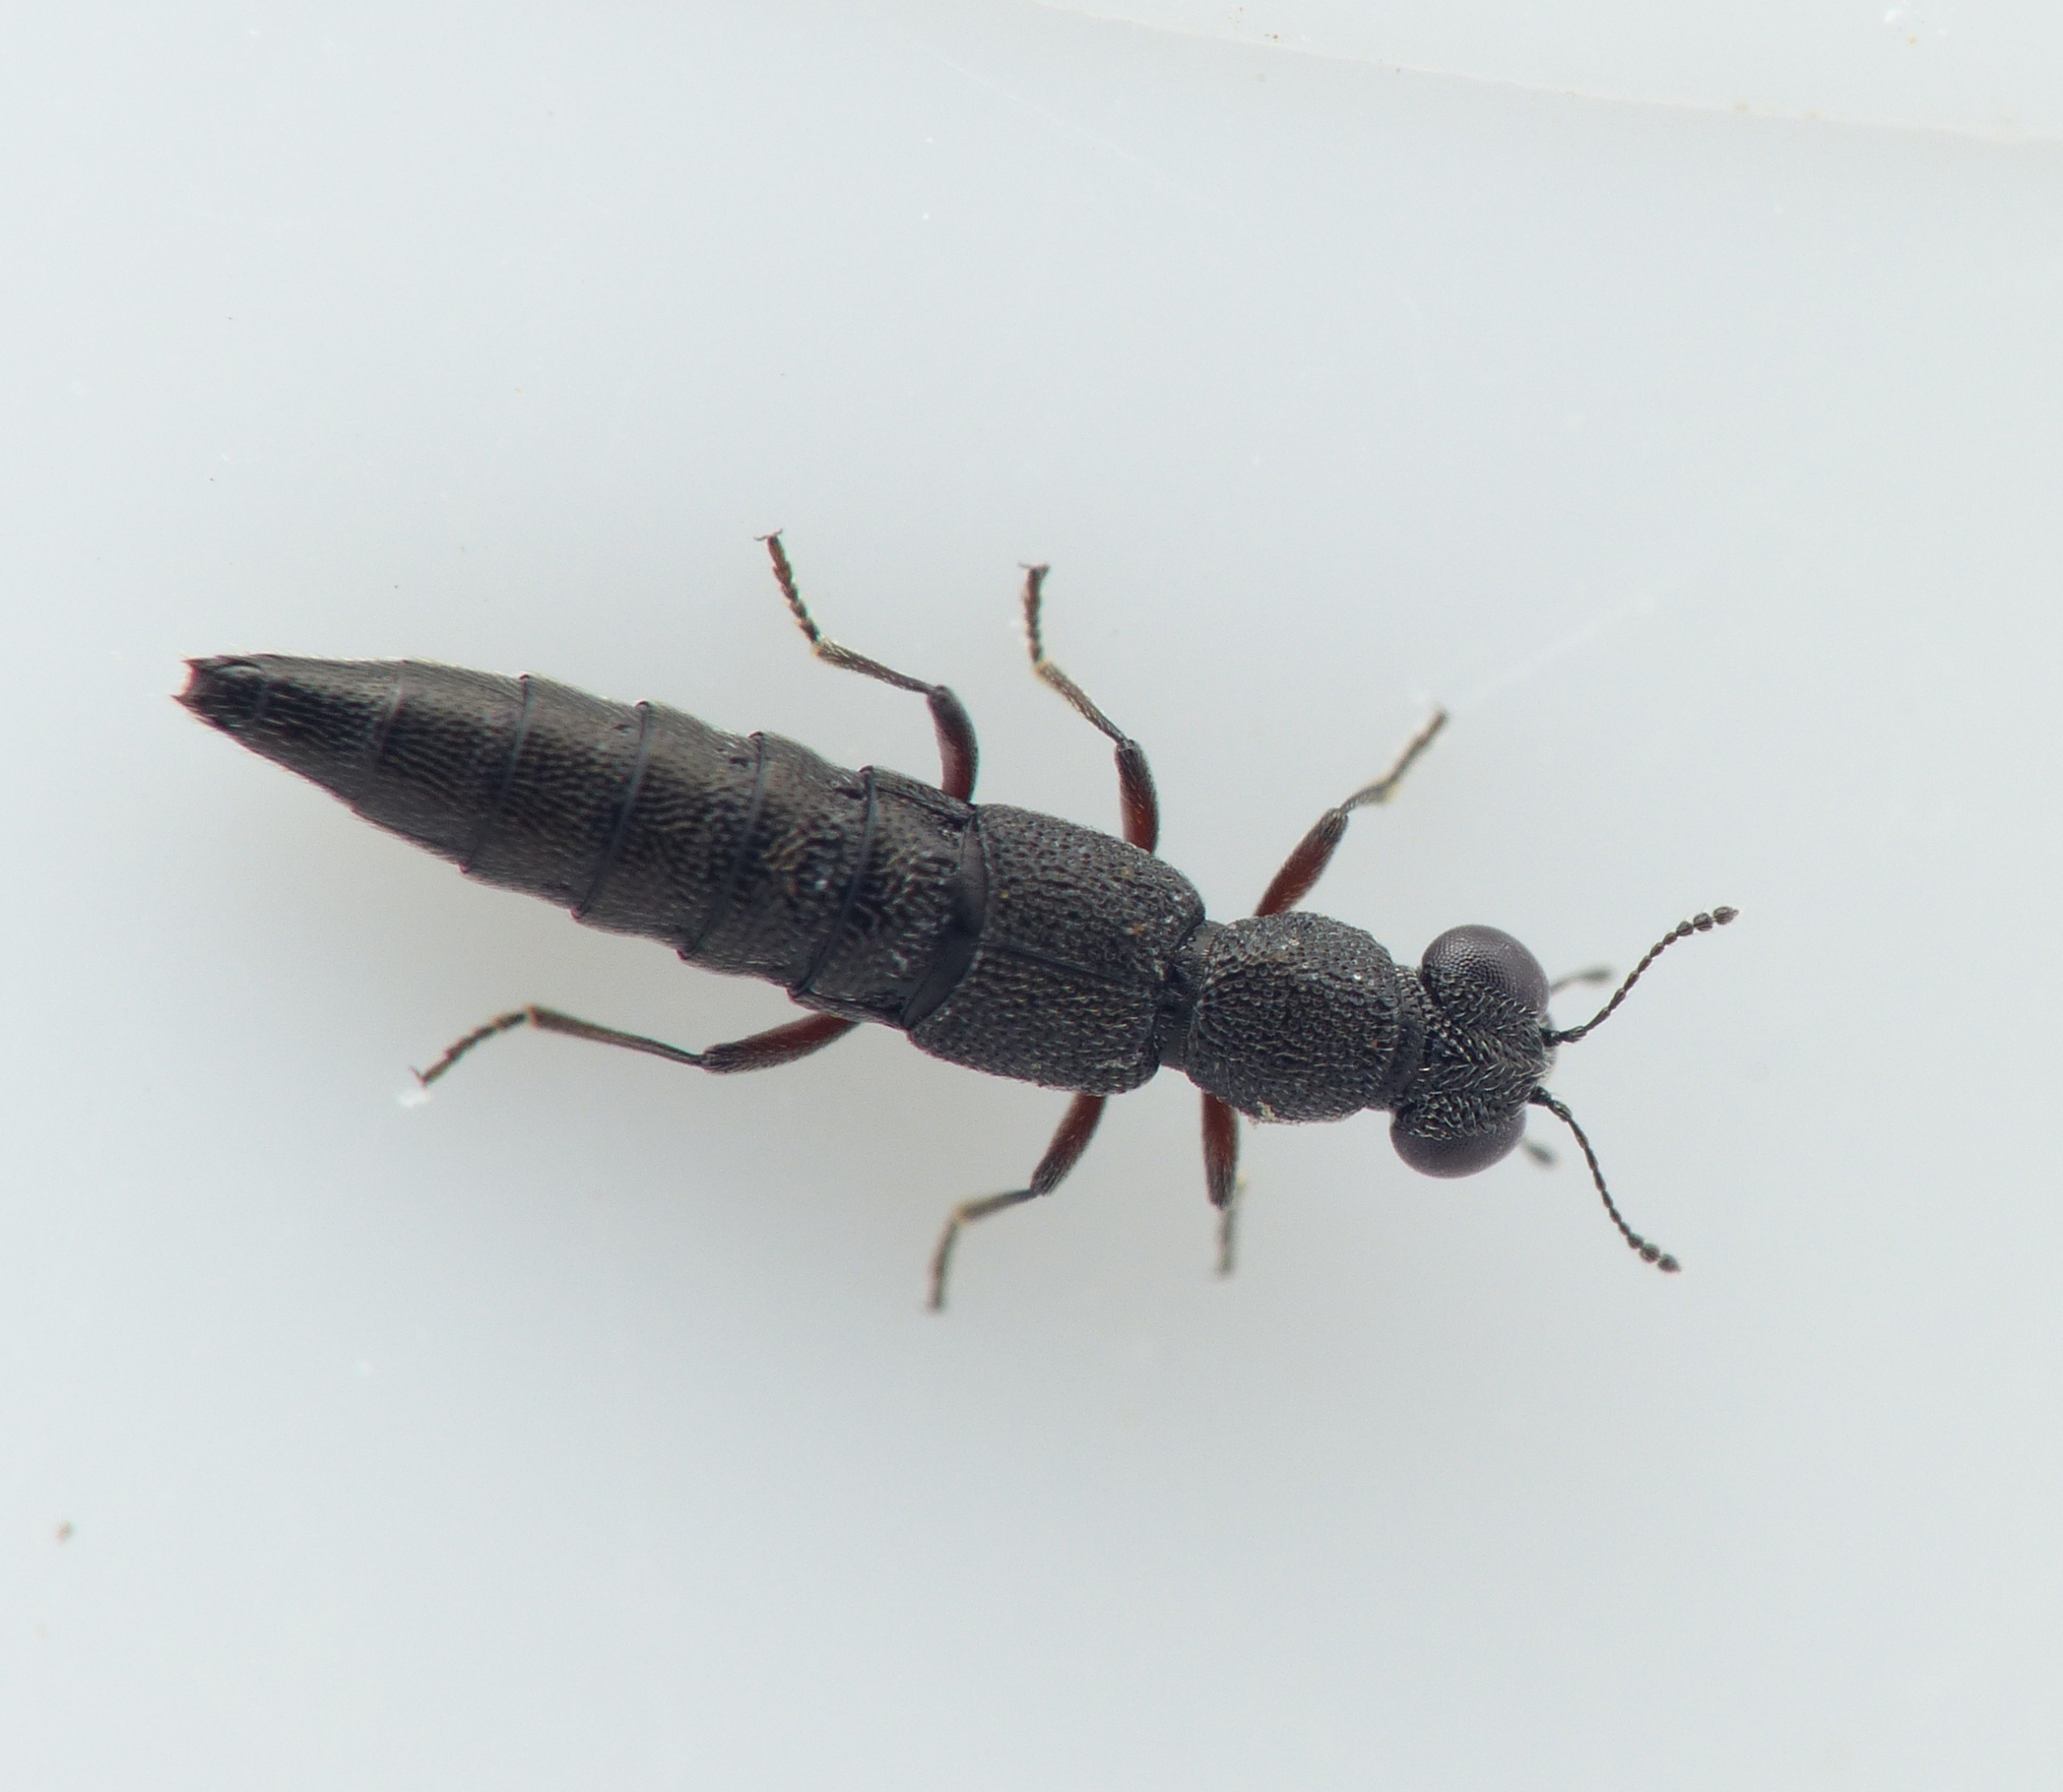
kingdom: Animalia
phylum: Arthropoda
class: Insecta
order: Coleoptera
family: Staphylinidae
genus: Stenus
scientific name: Stenus brunnipes
